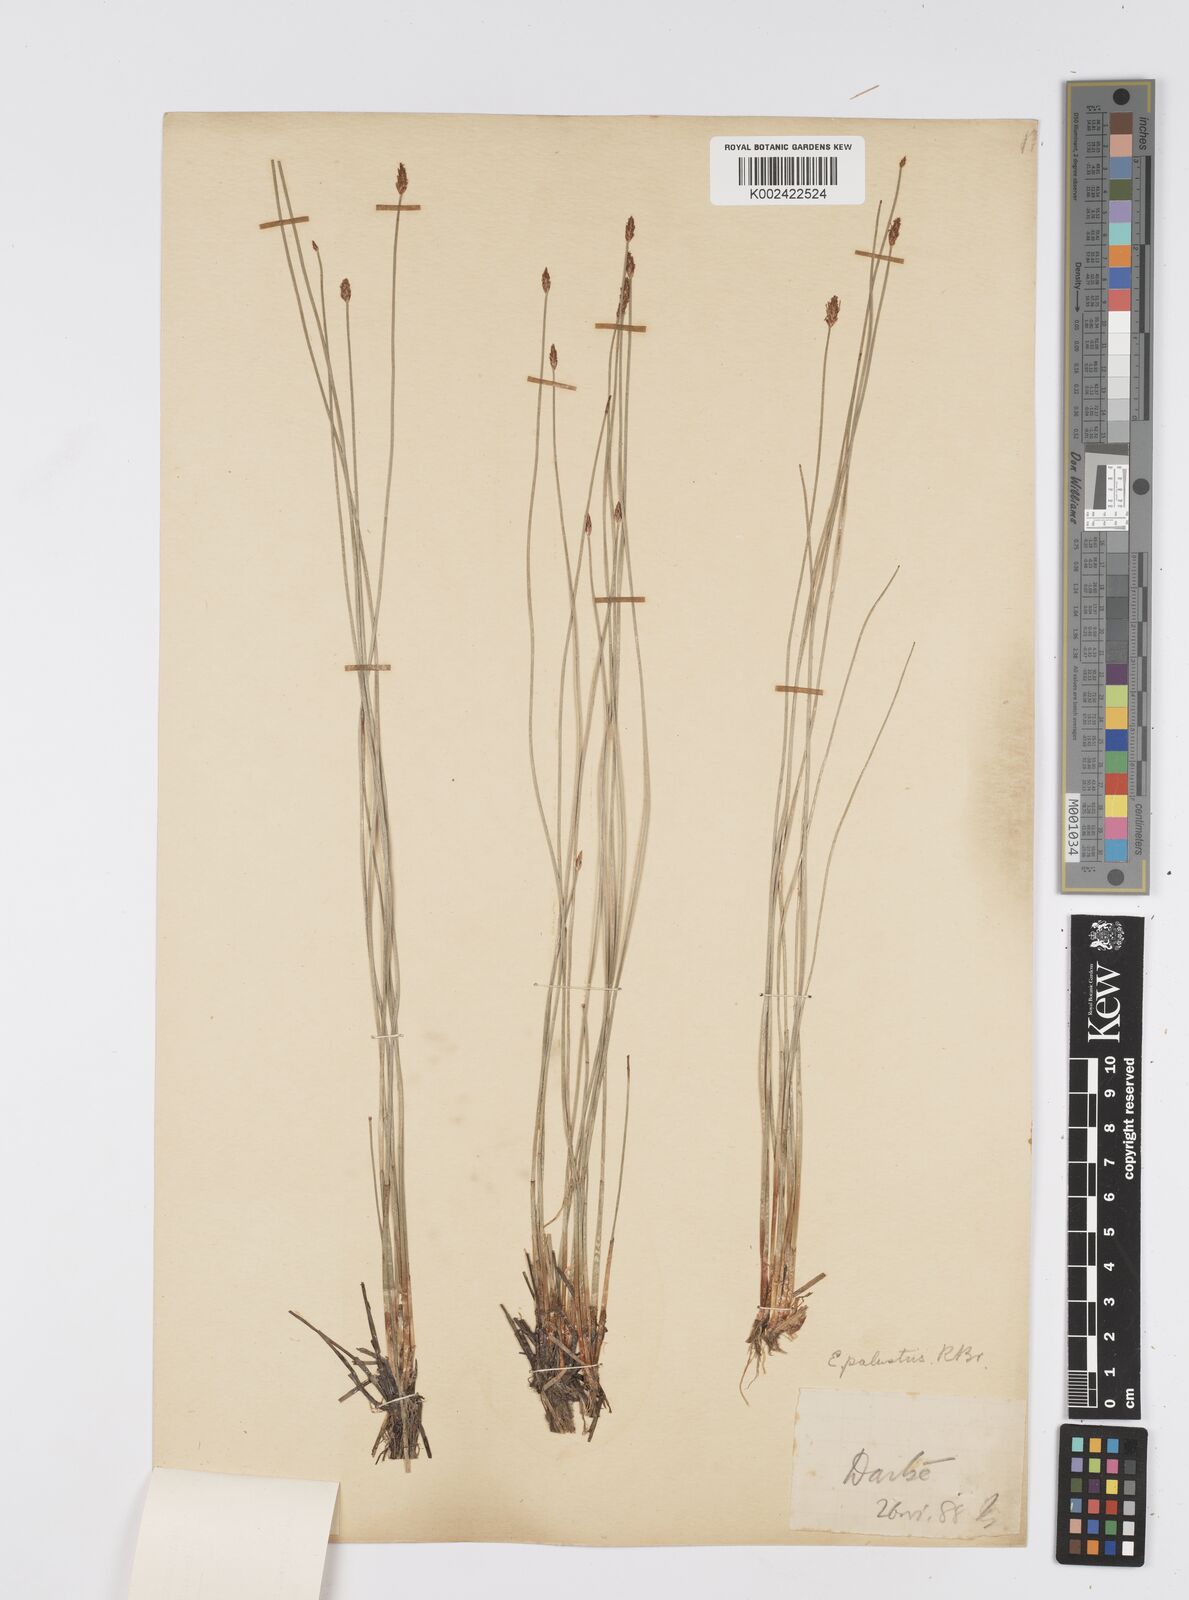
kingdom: Plantae
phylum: Tracheophyta
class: Liliopsida
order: Poales
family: Cyperaceae
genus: Eleocharis
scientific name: Eleocharis palustris
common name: Common spike-rush
